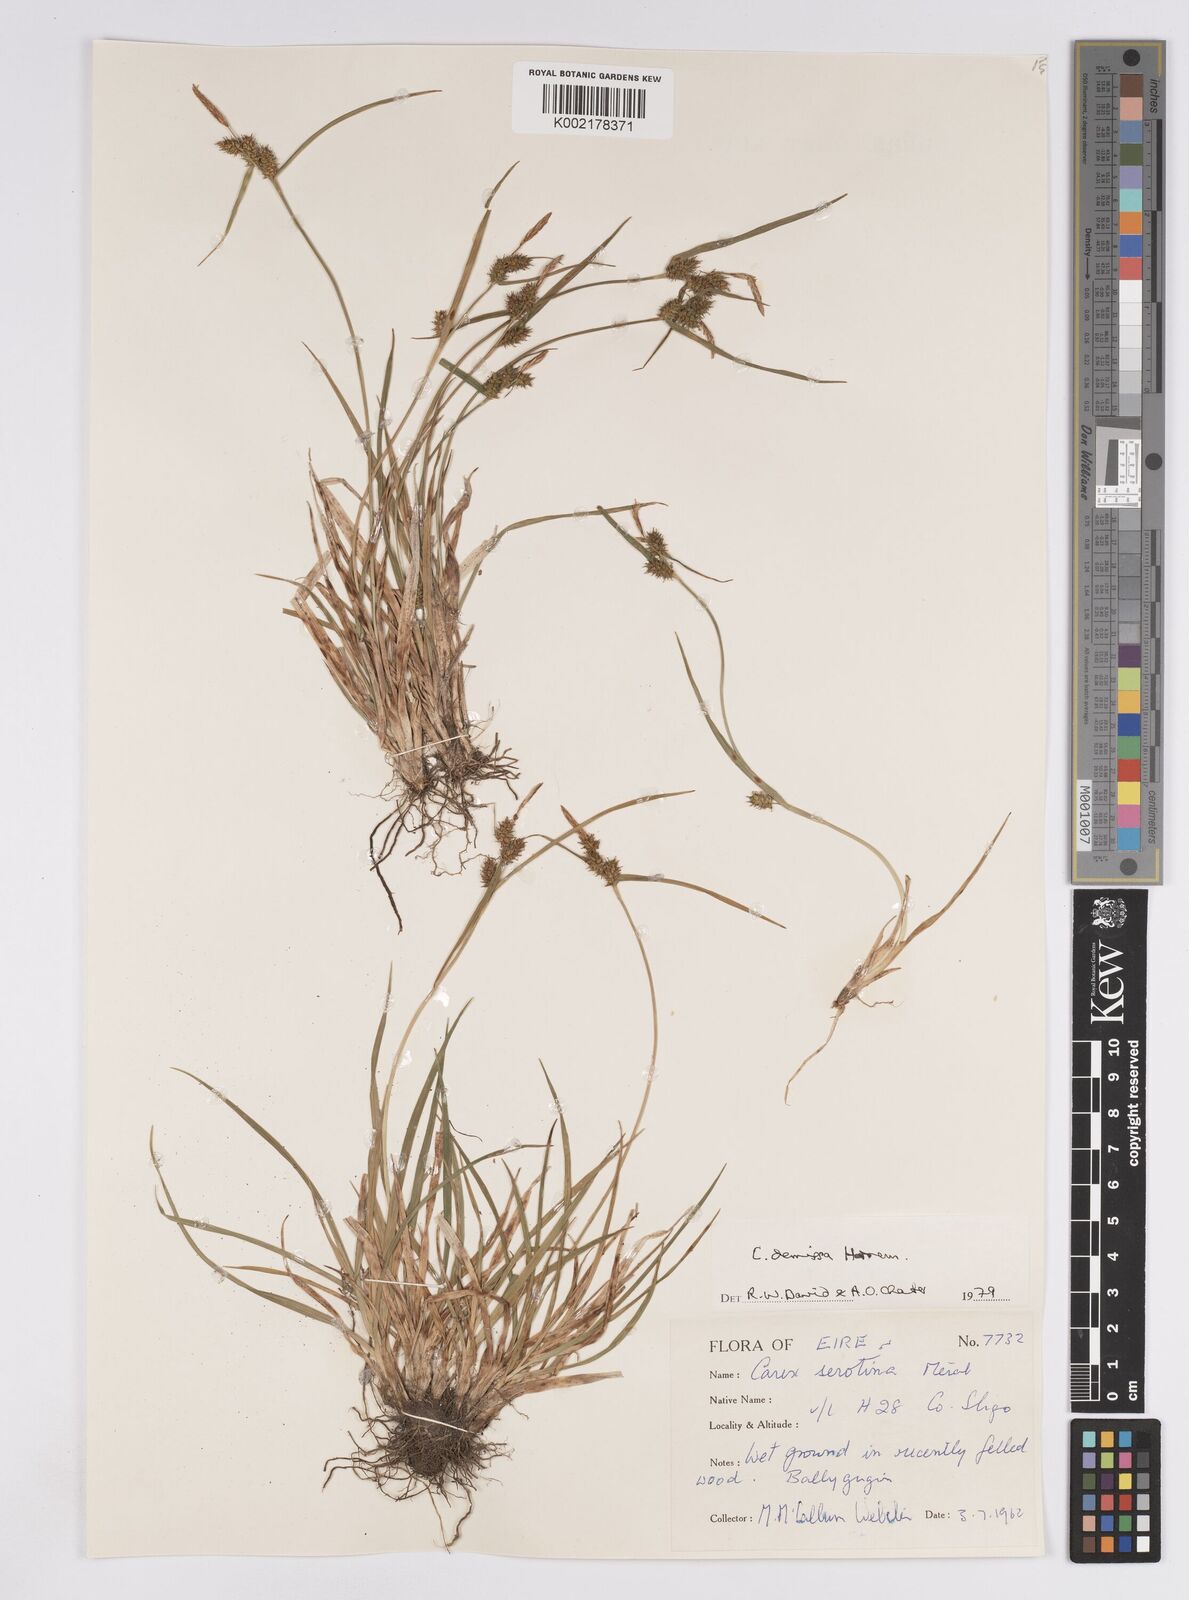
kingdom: Plantae
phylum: Tracheophyta
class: Liliopsida
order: Poales
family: Cyperaceae
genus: Carex
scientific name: Carex demissa
